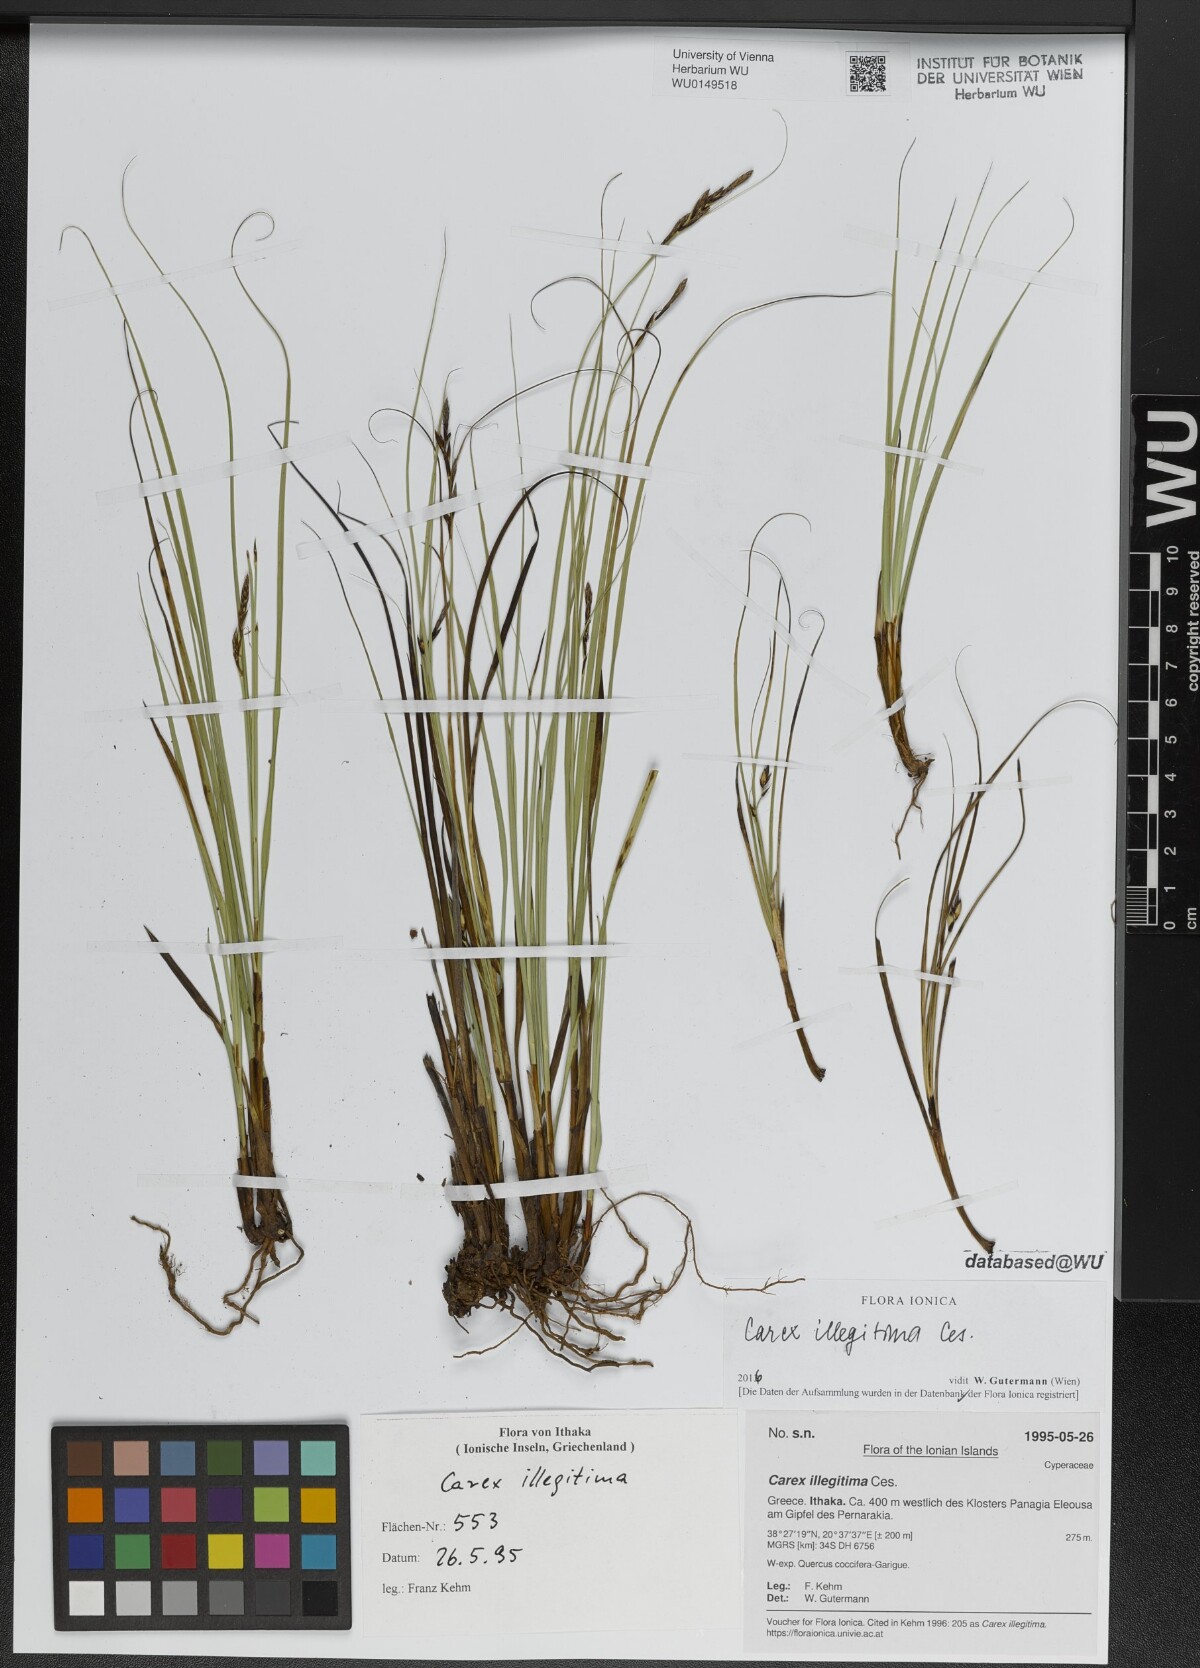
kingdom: Plantae
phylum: Tracheophyta
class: Liliopsida
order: Poales
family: Cyperaceae
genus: Carex
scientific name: Carex illegitima
